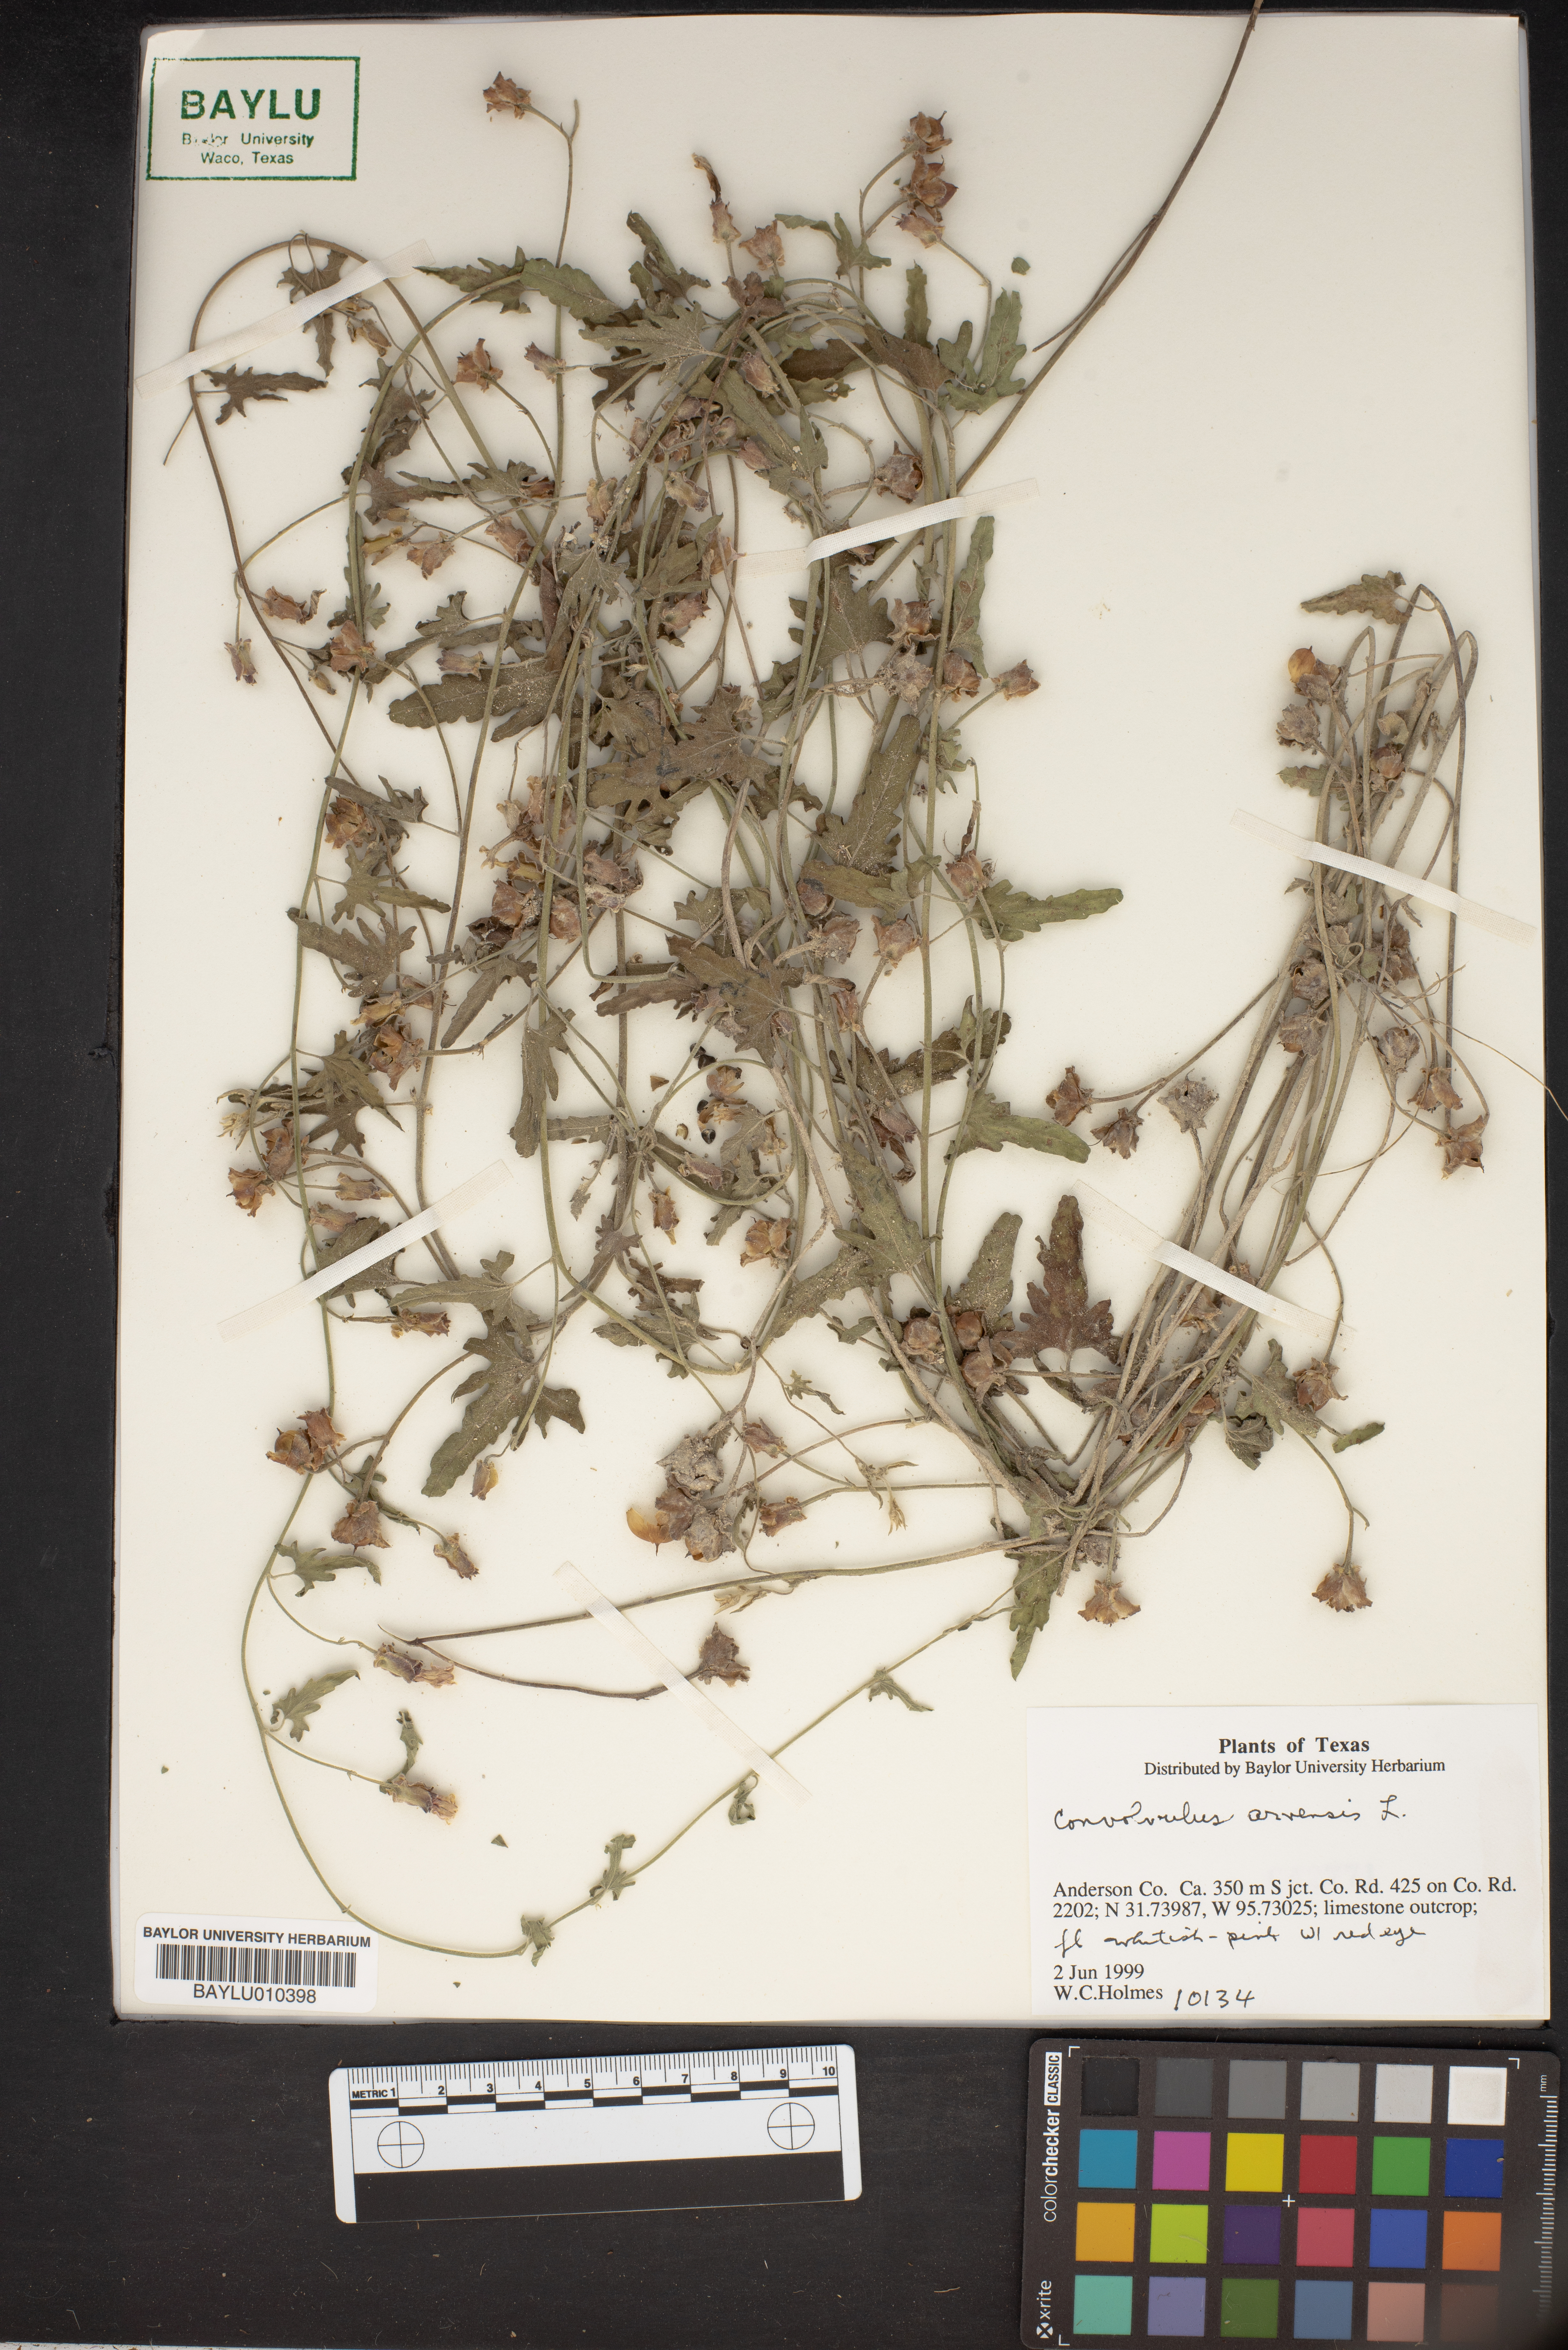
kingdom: Plantae
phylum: Tracheophyta
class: Magnoliopsida
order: Solanales
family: Convolvulaceae
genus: Convolvulus
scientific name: Convolvulus arvensis
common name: Field bindweed
